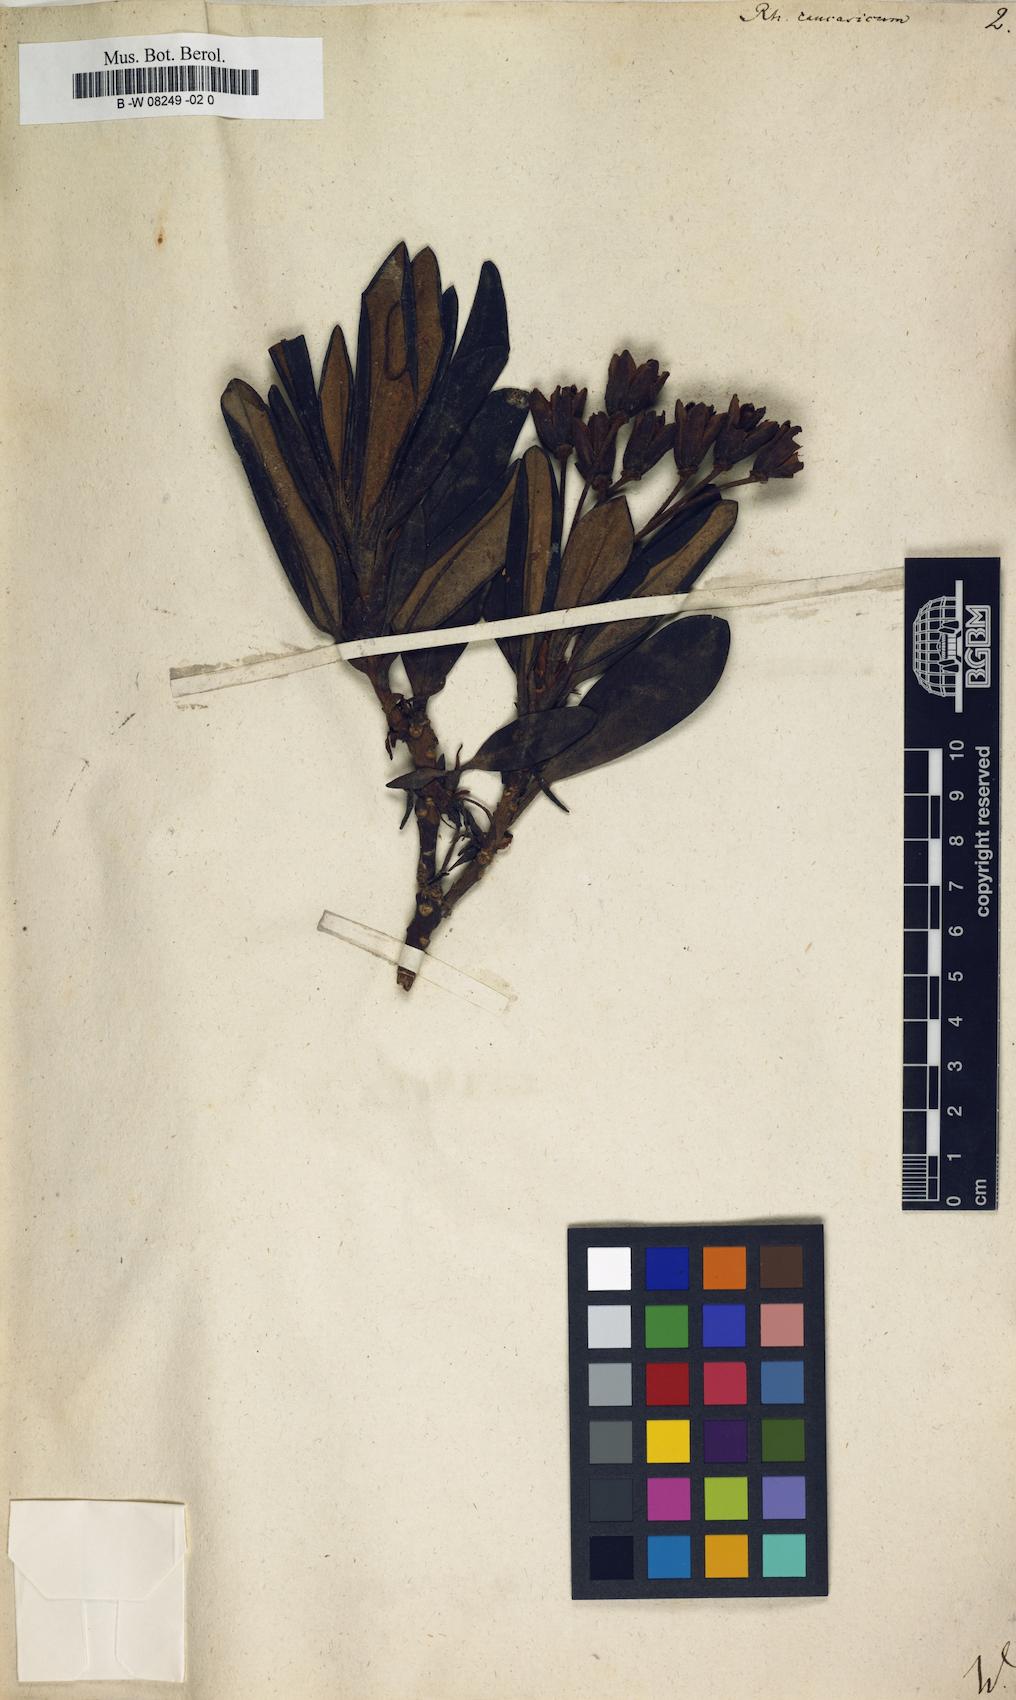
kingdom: Plantae
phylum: Tracheophyta
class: Magnoliopsida
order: Ericales
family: Ericaceae
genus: Rhododendron
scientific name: Rhododendron caucasicum
